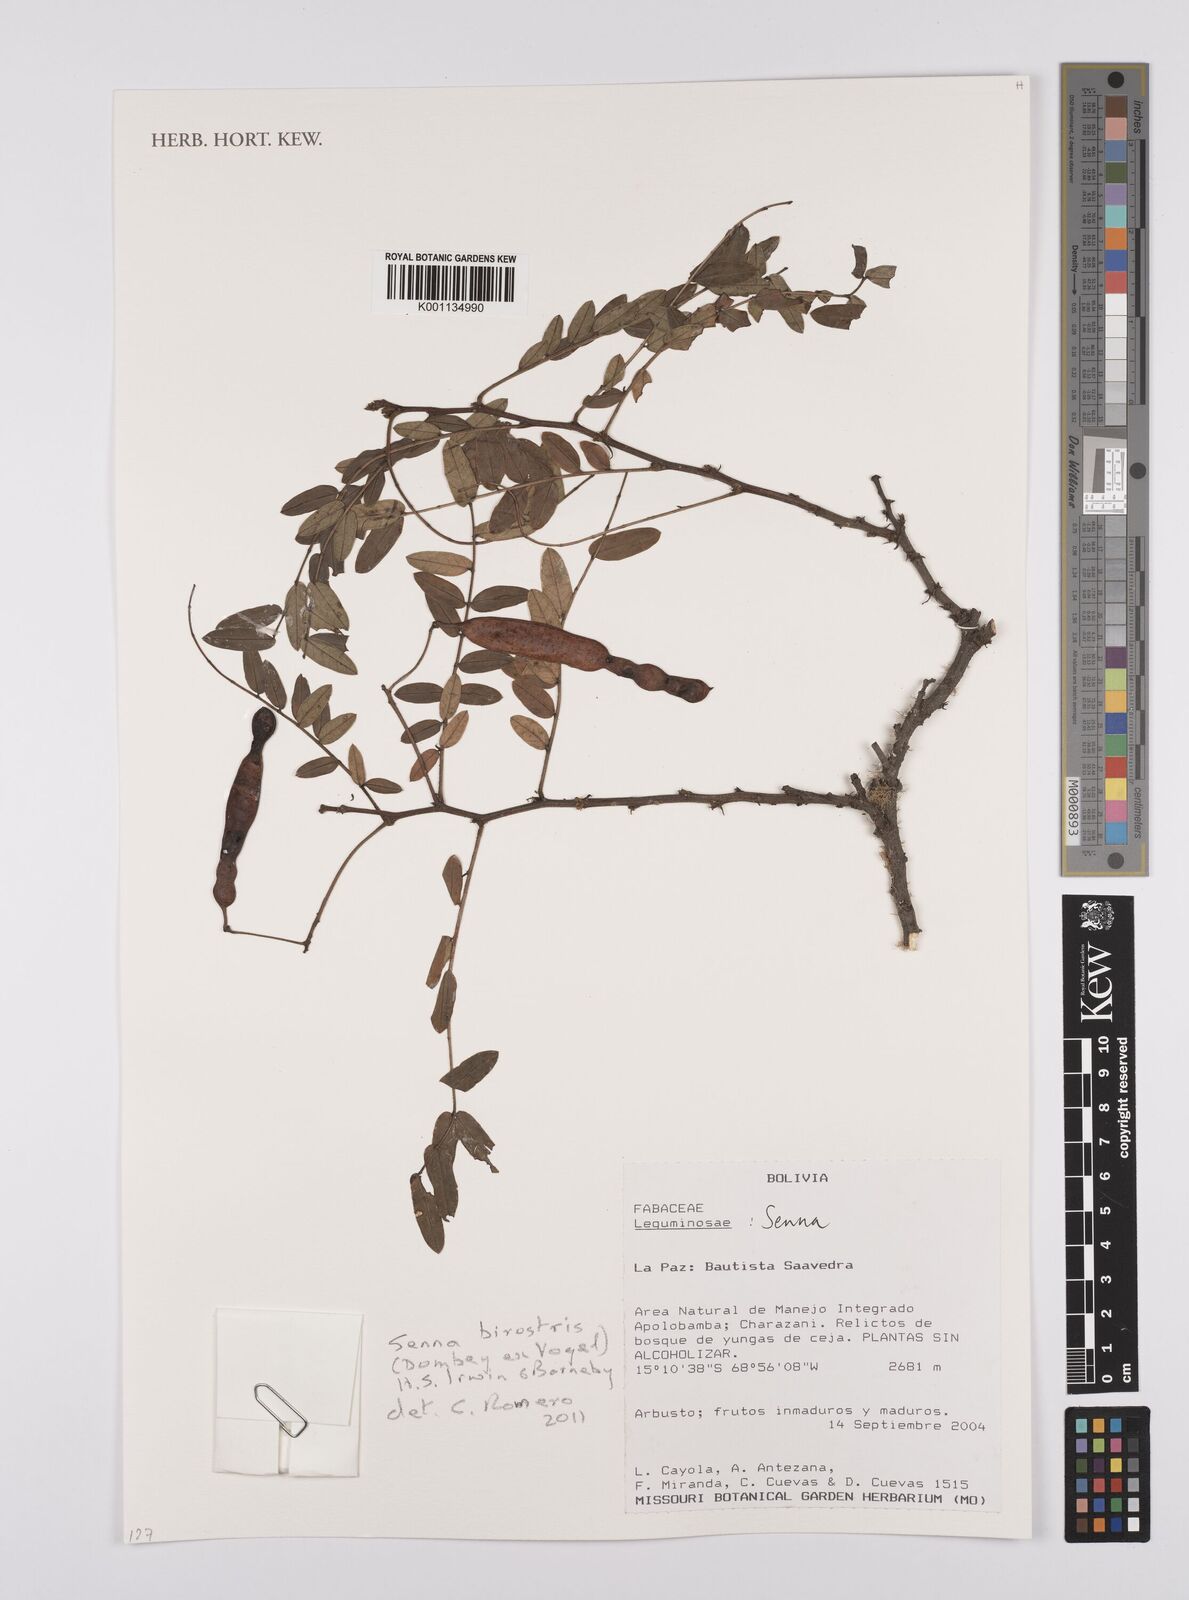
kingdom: Plantae
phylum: Tracheophyta
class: Magnoliopsida
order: Fabales
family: Fabaceae
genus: Senna
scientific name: Senna birostris
